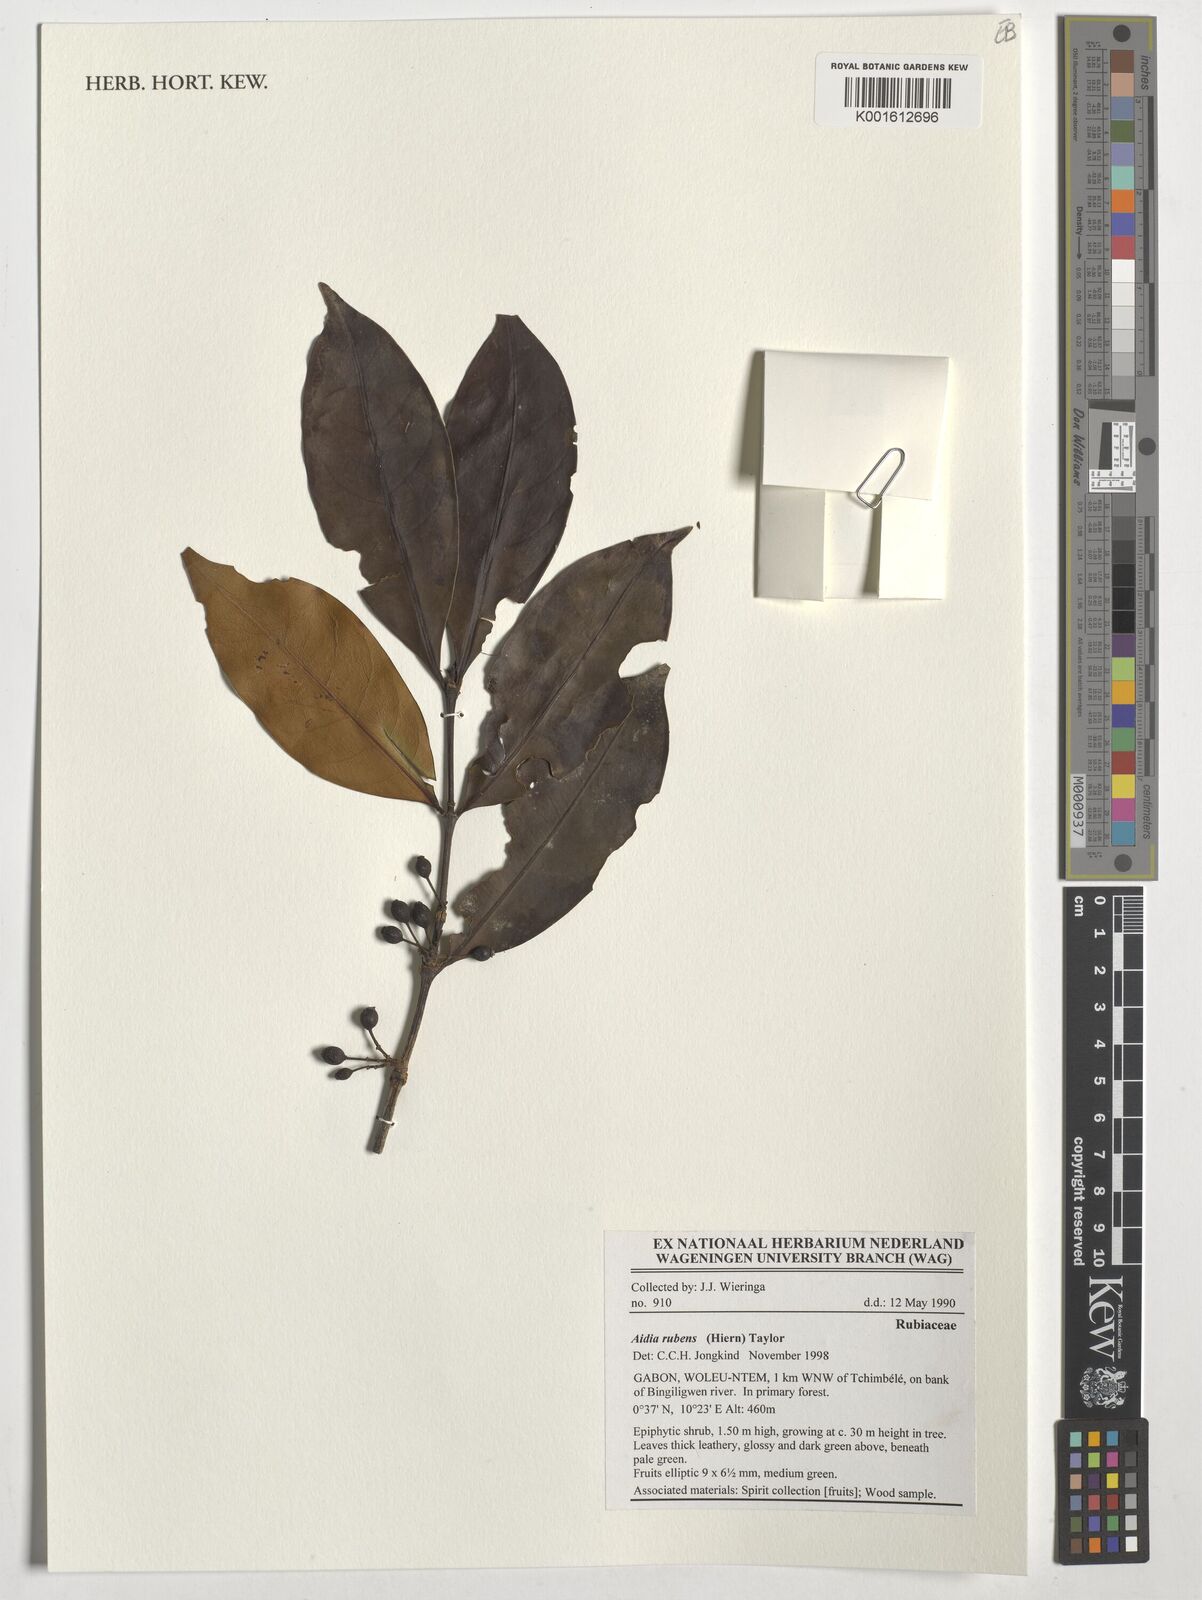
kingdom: Plantae
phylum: Tracheophyta
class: Magnoliopsida
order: Gentianales
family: Rubiaceae
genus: Aidia
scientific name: Aidia rubens
